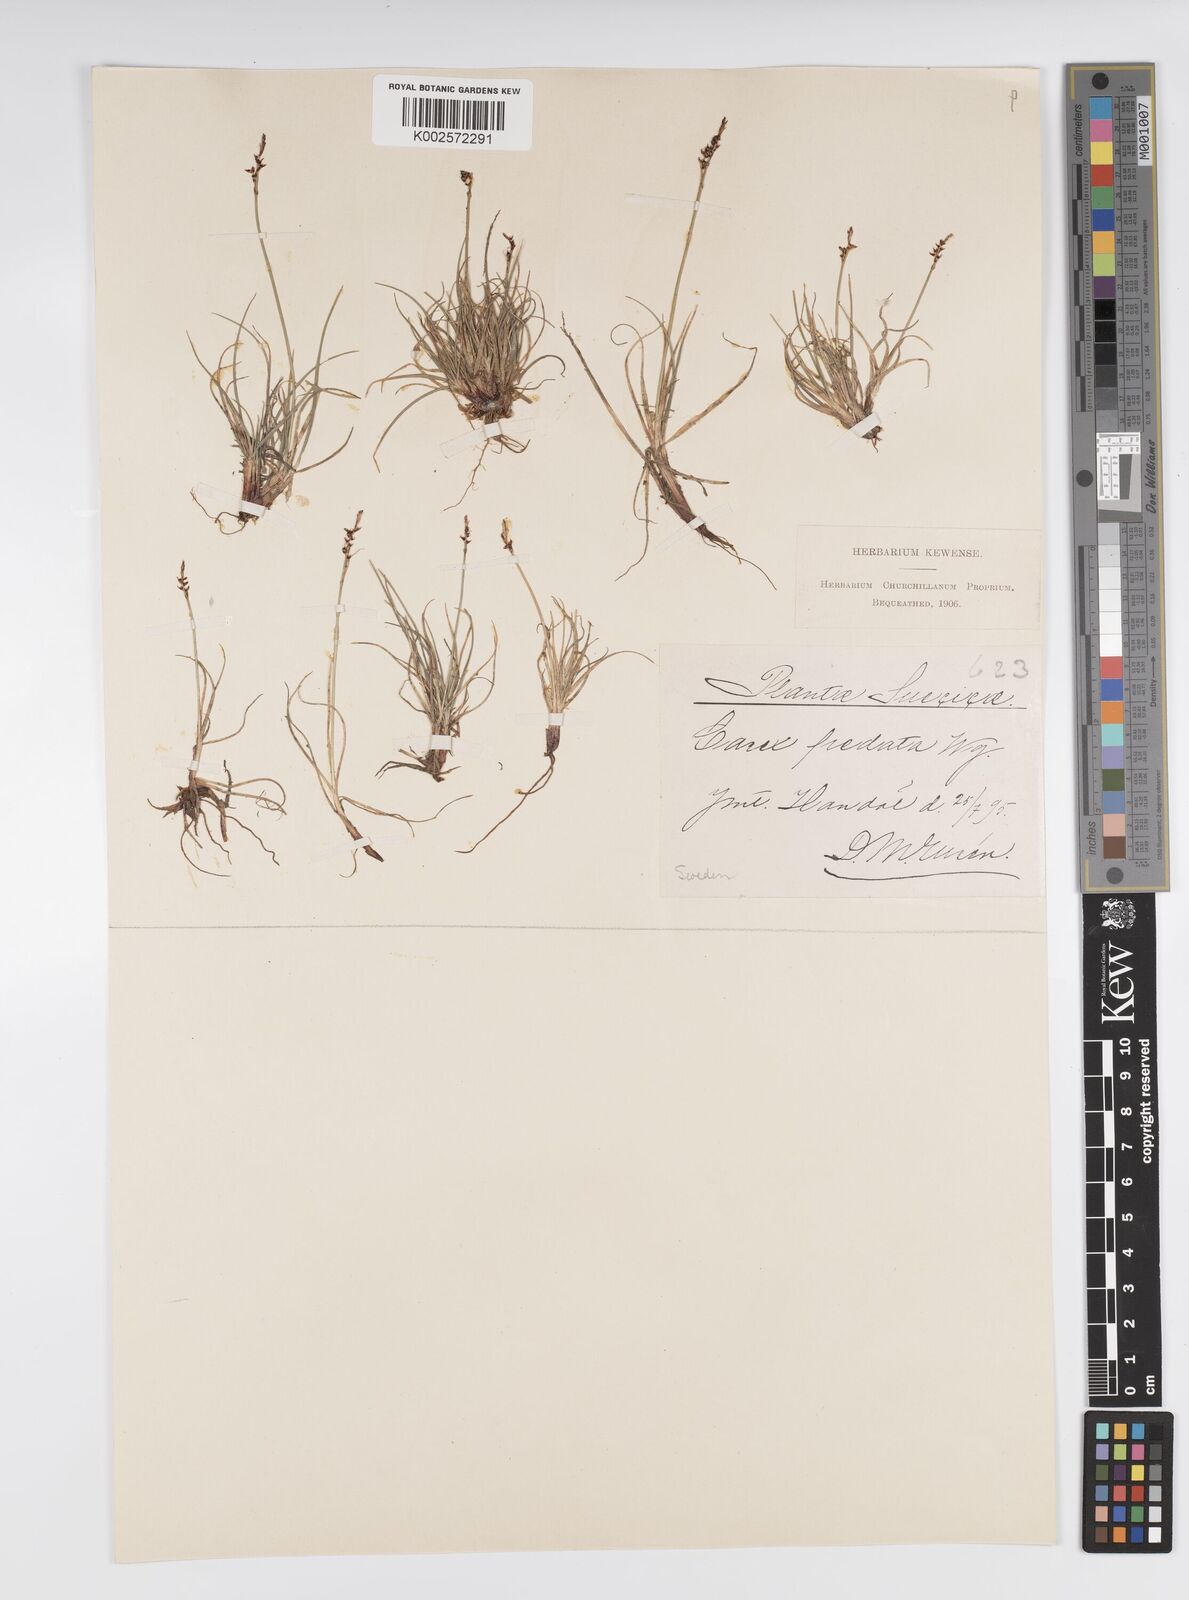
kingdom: Plantae
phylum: Tracheophyta
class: Liliopsida
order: Poales
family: Cyperaceae
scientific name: Cyperaceae
